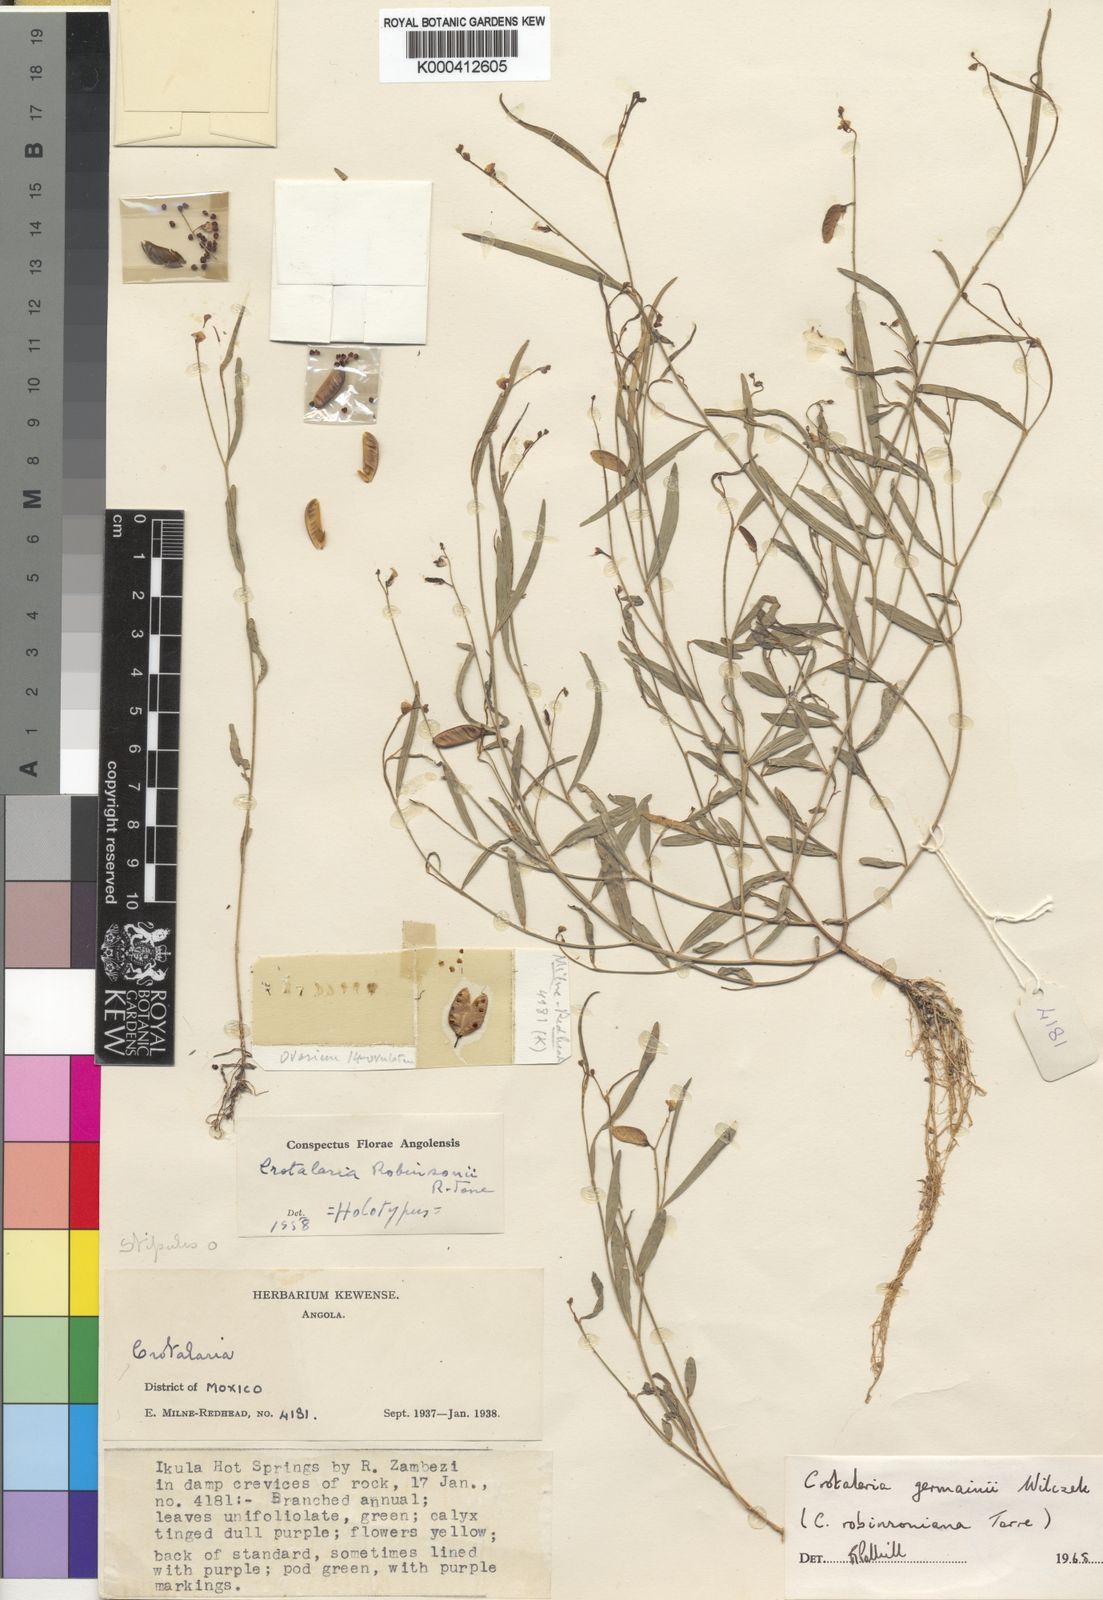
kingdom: Plantae
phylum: Tracheophyta
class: Magnoliopsida
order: Fabales
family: Fabaceae
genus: Crotalaria
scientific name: Crotalaria germainii
